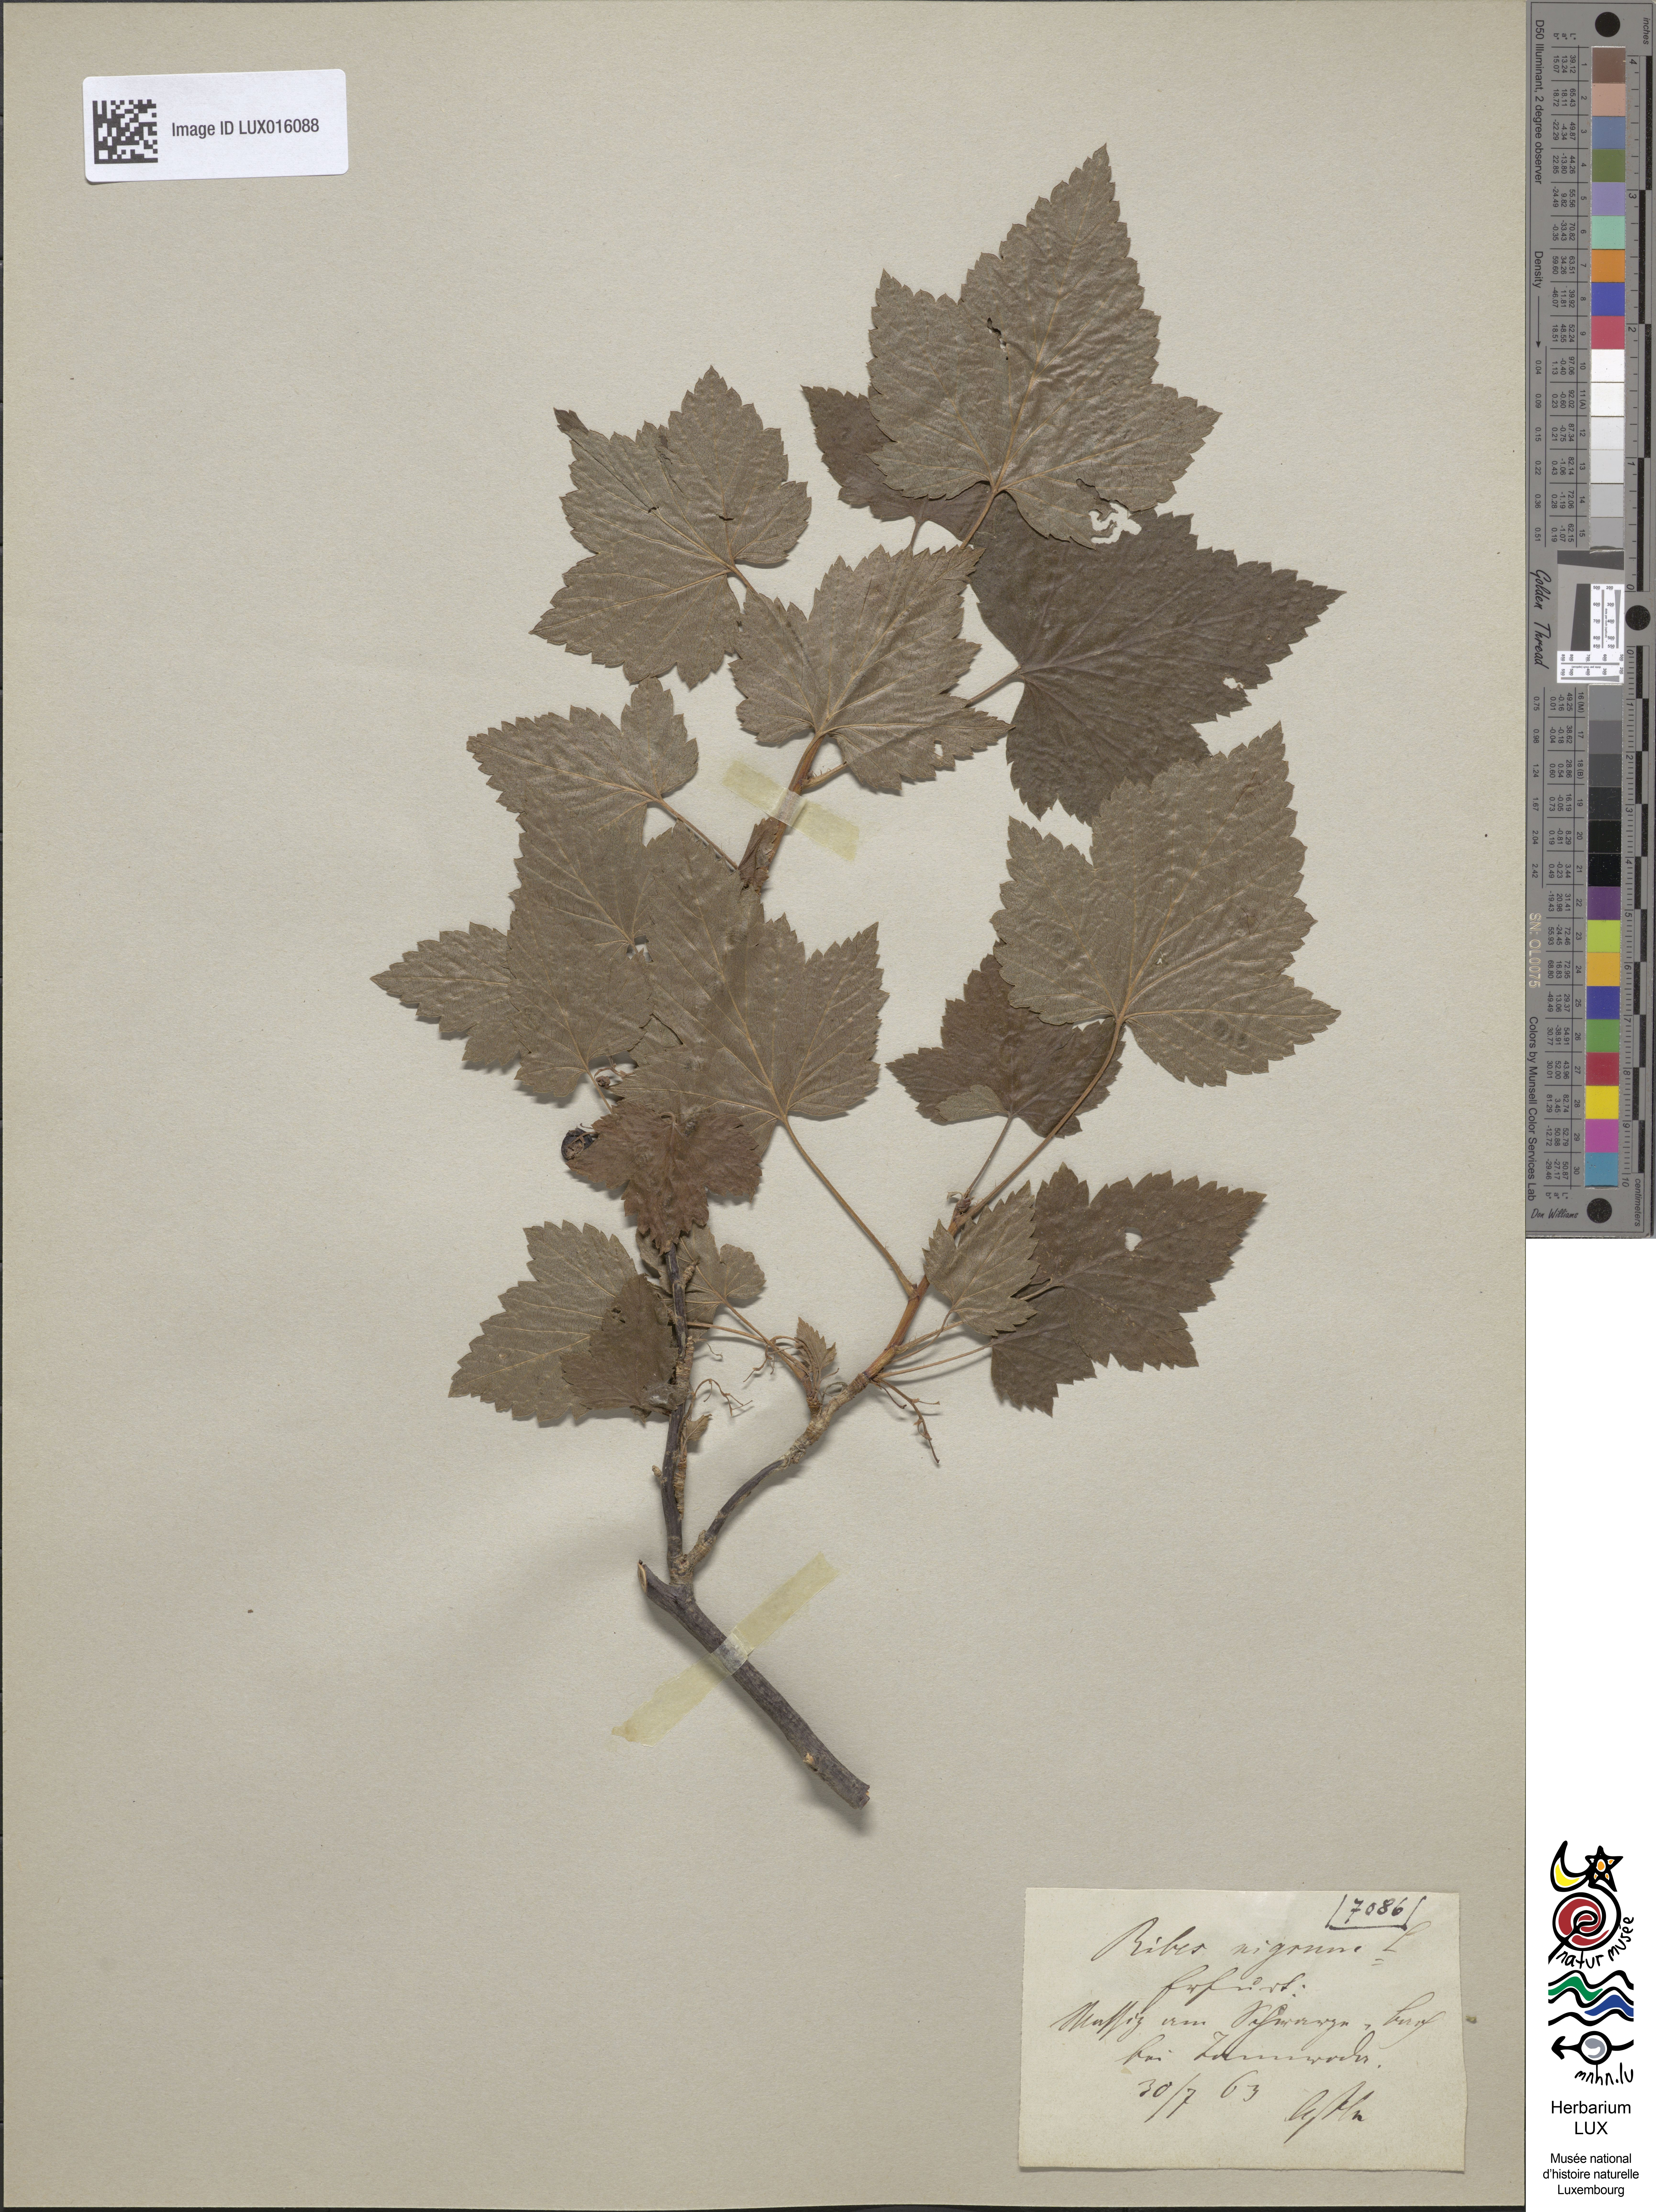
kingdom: Plantae
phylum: Tracheophyta
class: Magnoliopsida
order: Saxifragales
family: Grossulariaceae
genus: Ribes
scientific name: Ribes nigrum
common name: Black currant
